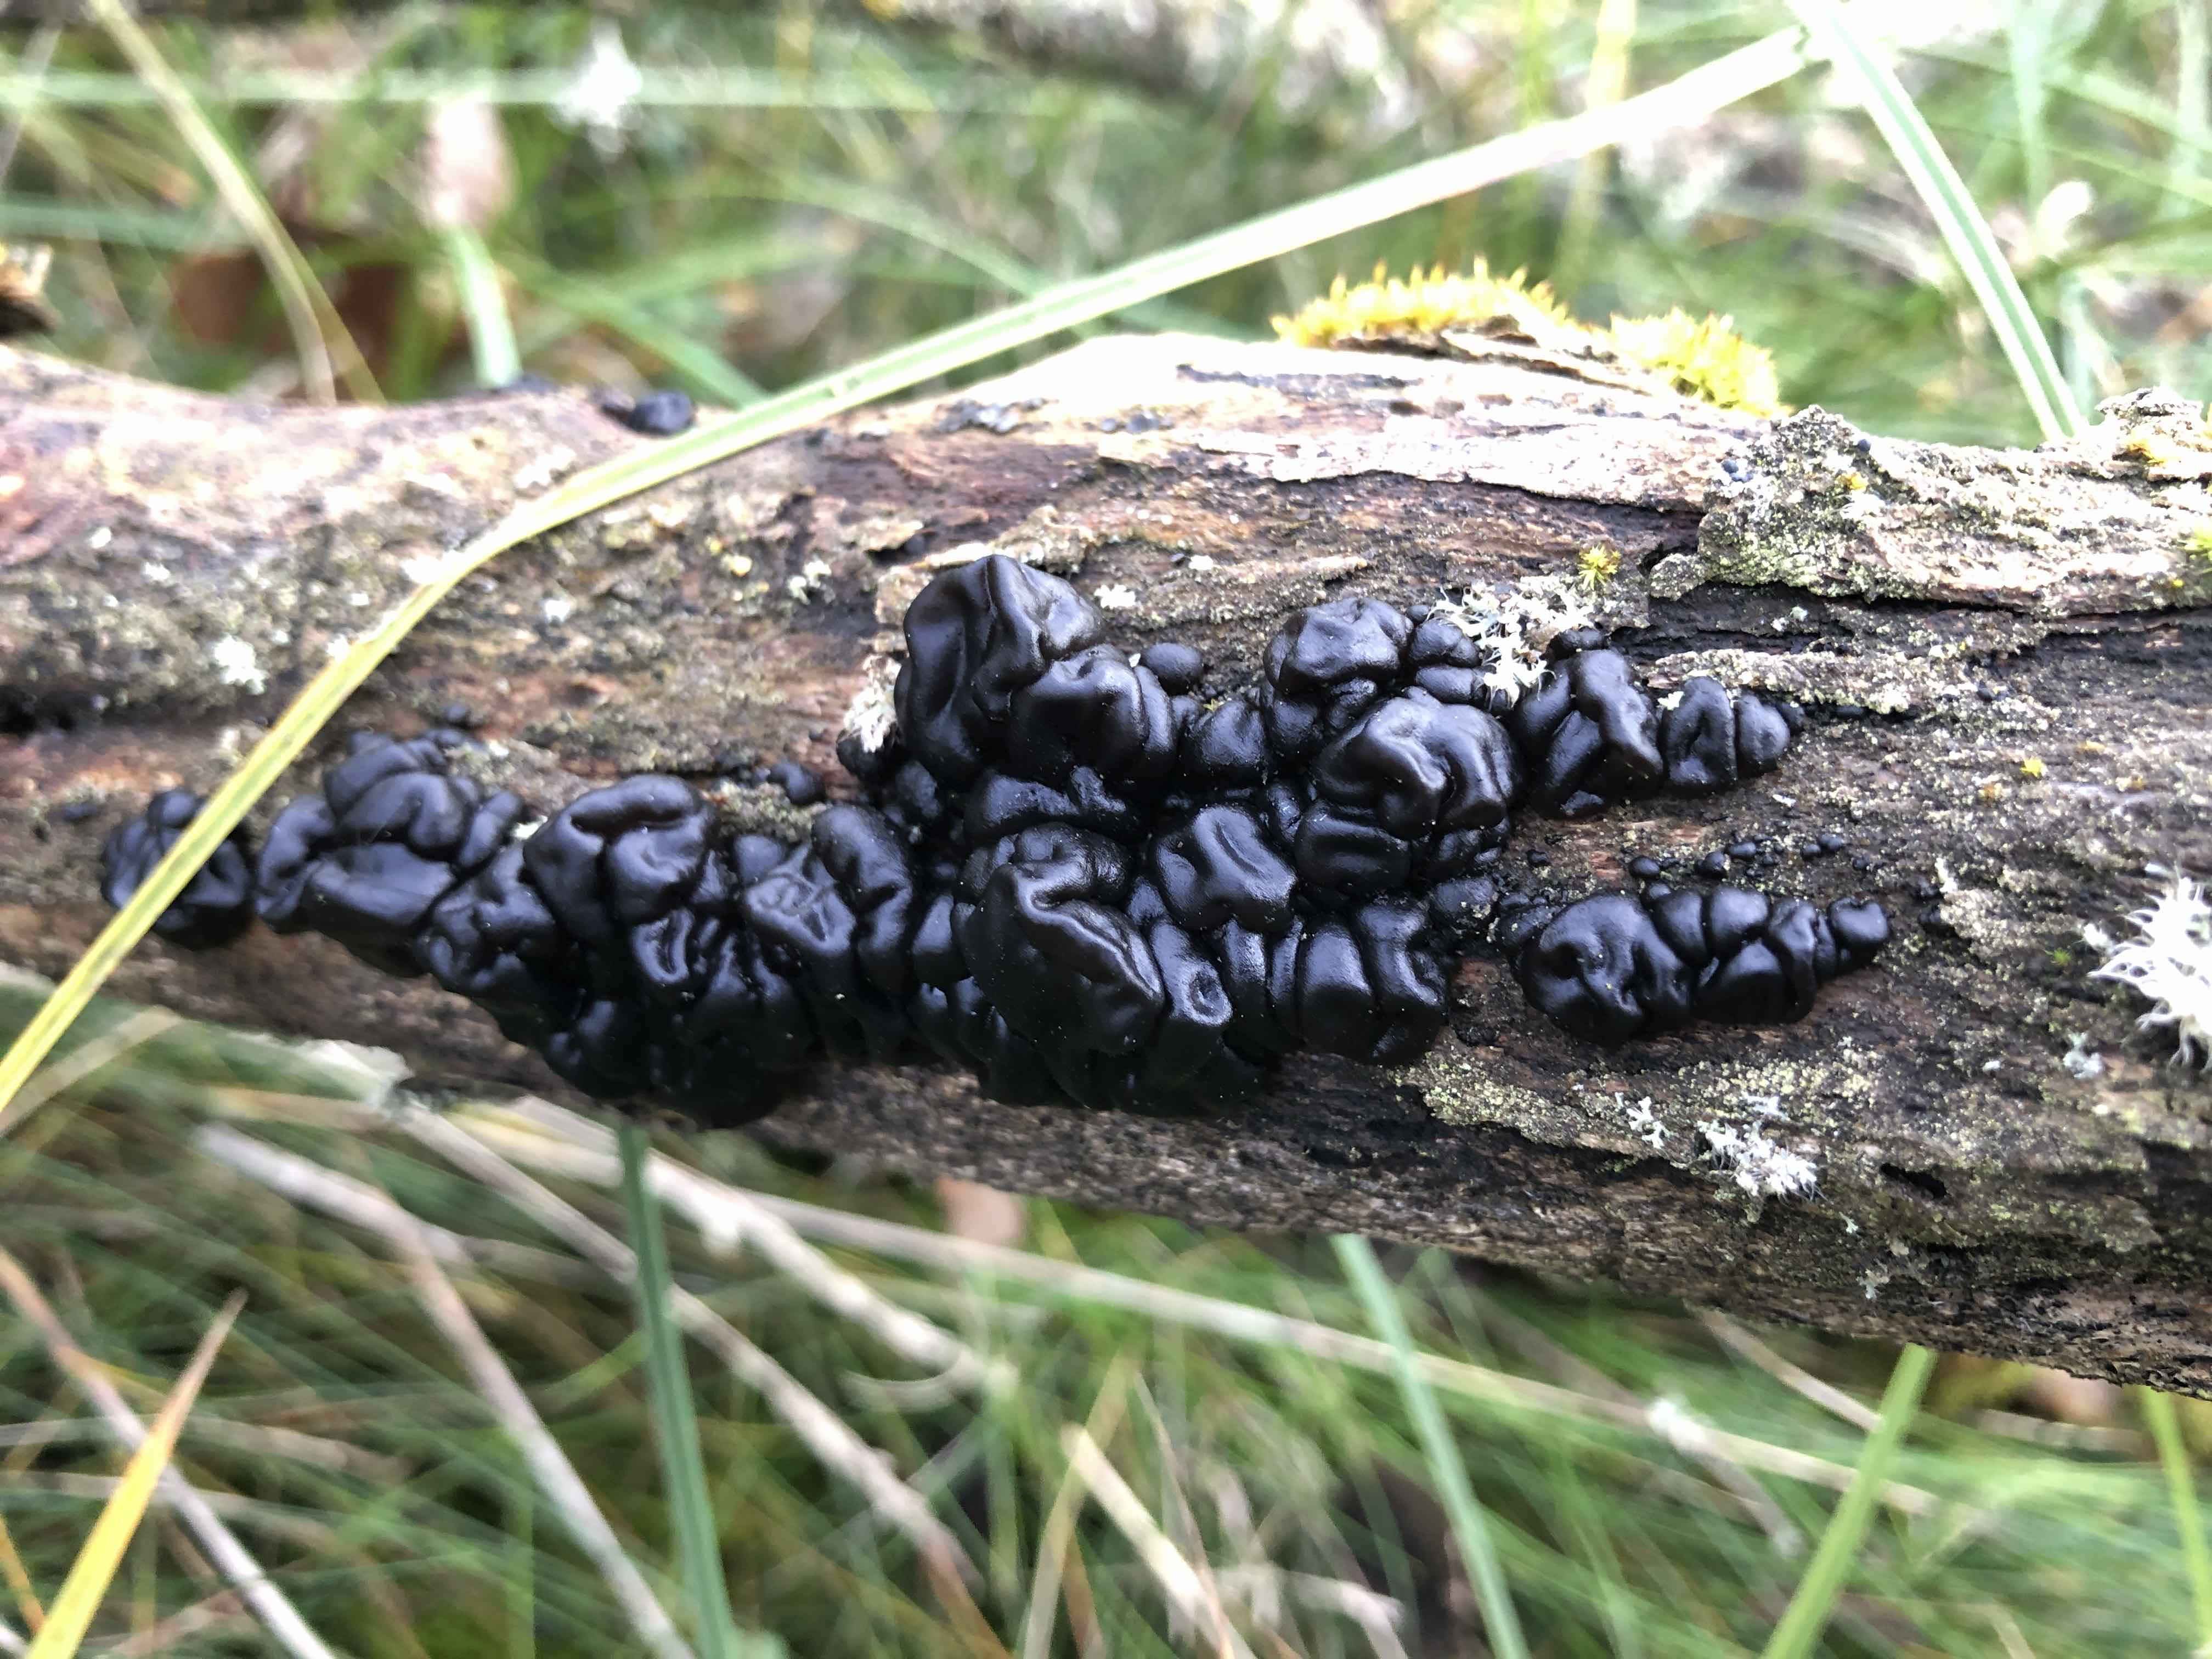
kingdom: Fungi
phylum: Basidiomycota
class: Agaricomycetes
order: Auriculariales
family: Auriculariaceae
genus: Exidia
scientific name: Exidia nigricans
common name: almindelig bævretop
